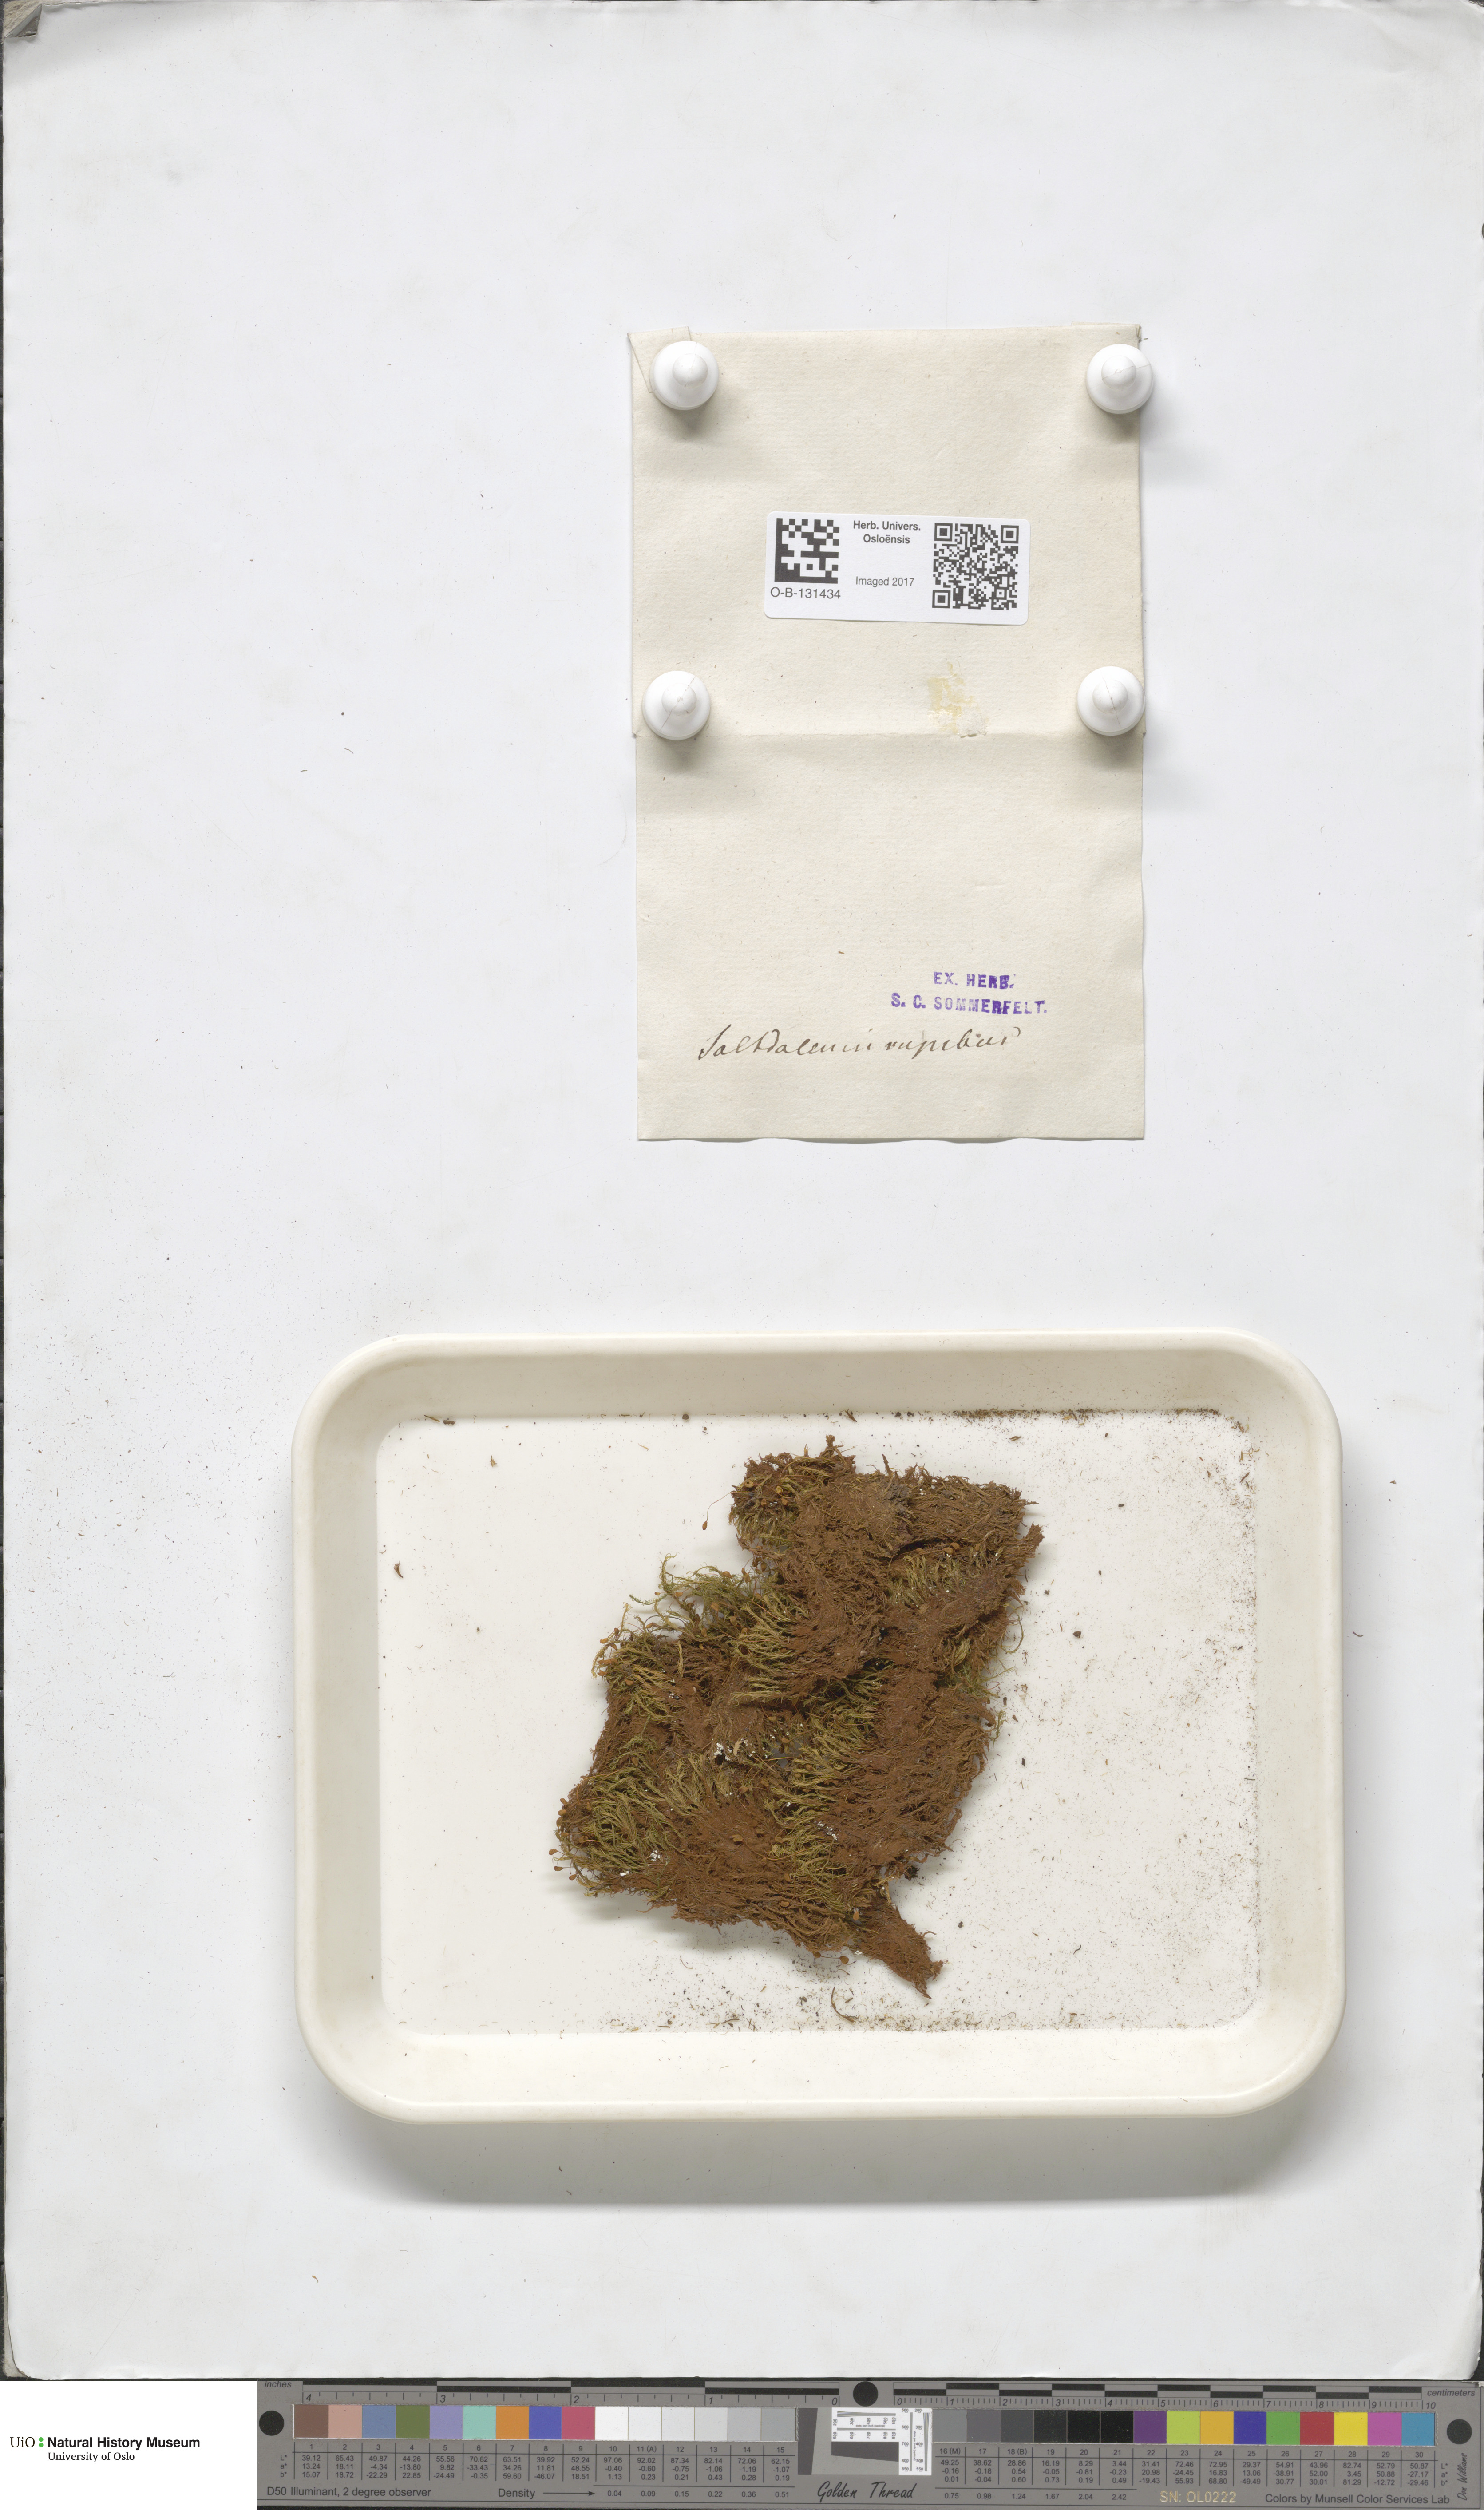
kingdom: Plantae
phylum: Bryophyta
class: Bryopsida
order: Grimmiales
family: Seligeriaceae
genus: Blindia
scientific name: Blindia acuta
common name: Sharp-leaved blind's moss
